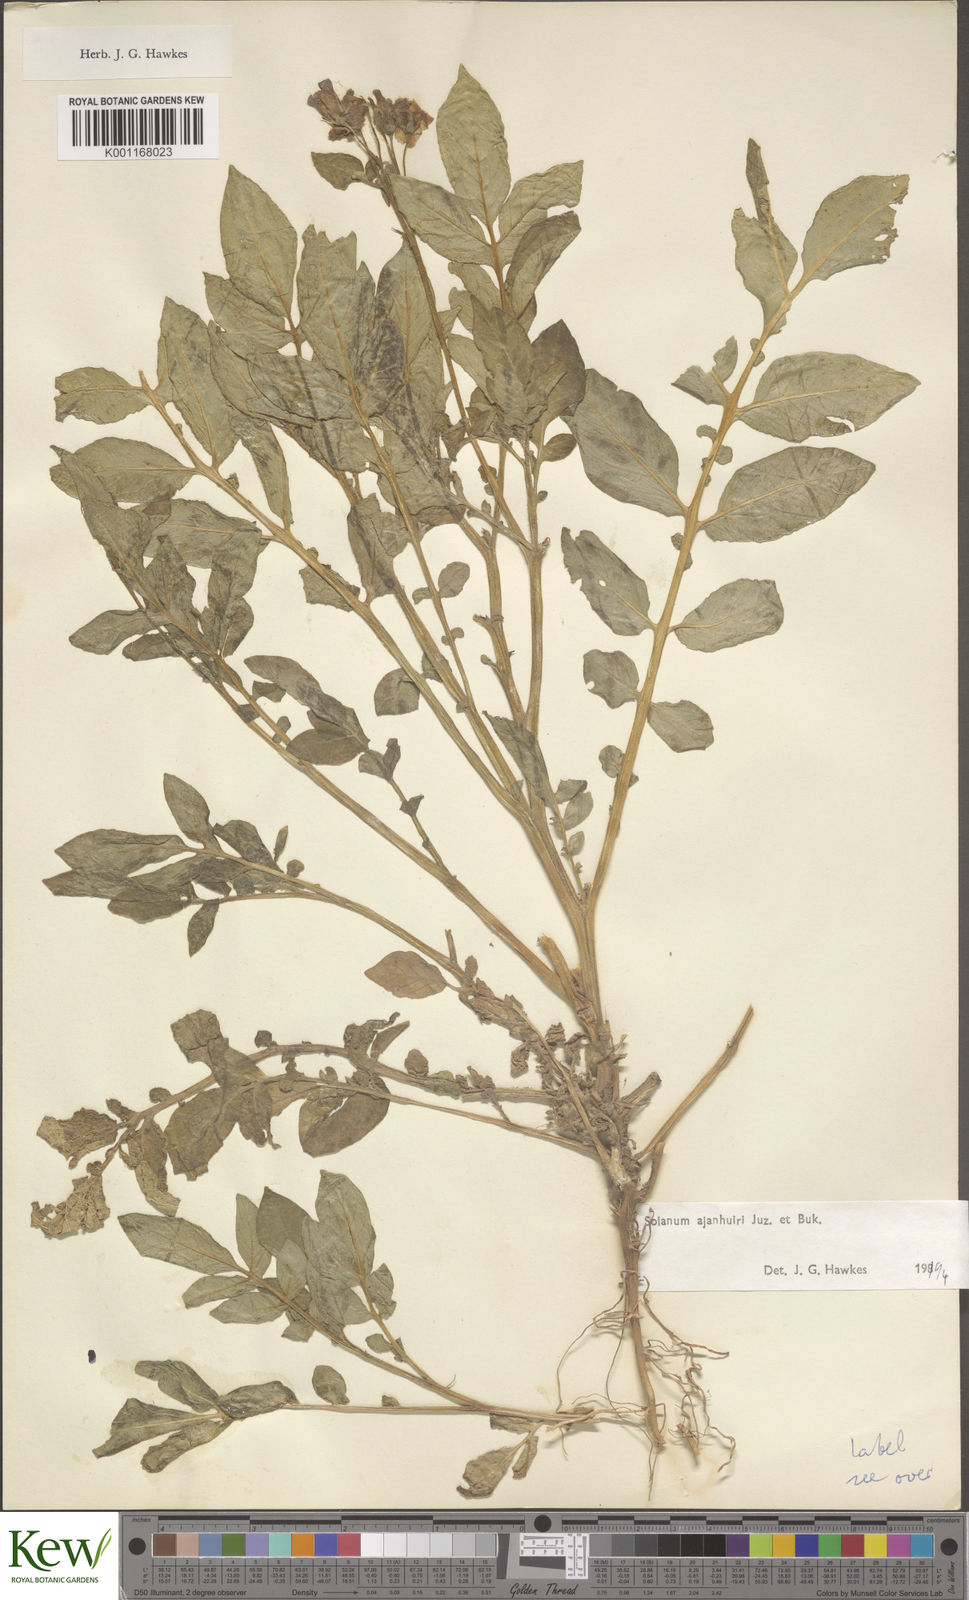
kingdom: Plantae
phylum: Tracheophyta
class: Magnoliopsida
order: Solanales
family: Solanaceae
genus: Solanum
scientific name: Solanum ajanhuiri
